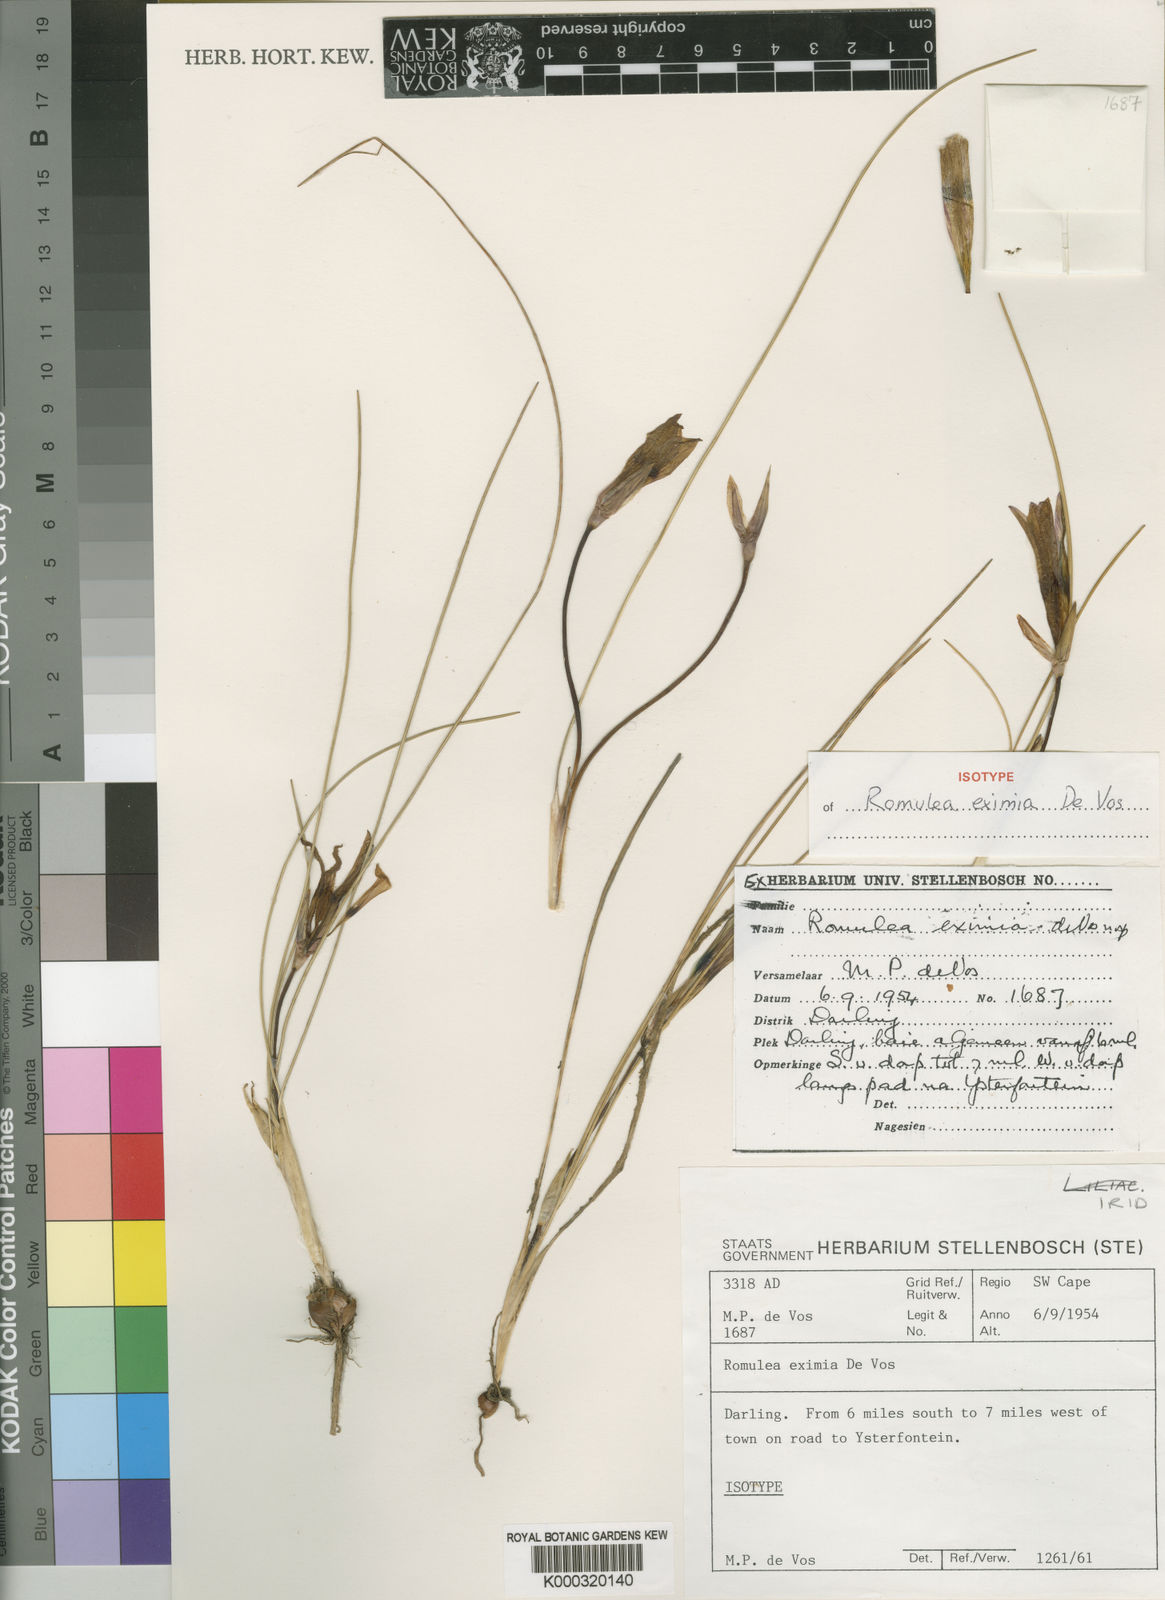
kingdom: Plantae
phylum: Tracheophyta
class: Liliopsida
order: Asparagales
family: Iridaceae
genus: Romulea
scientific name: Romulea eximia
